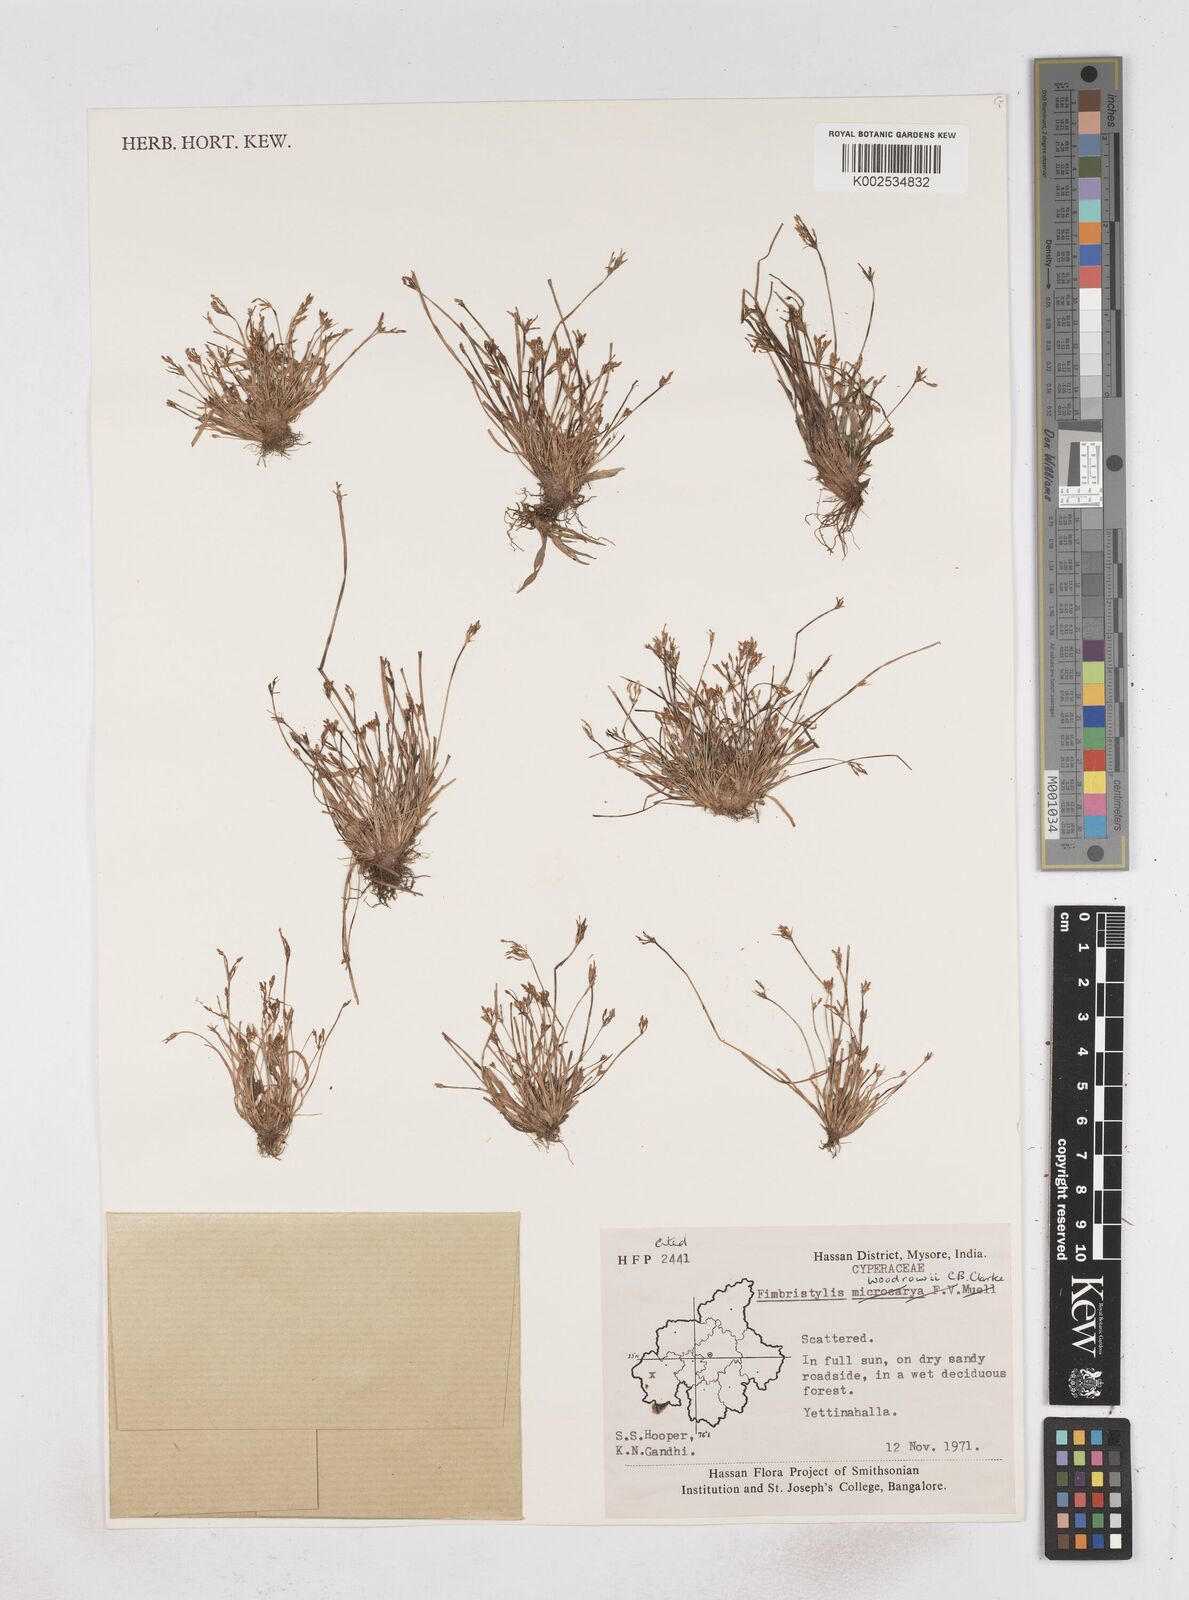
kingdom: Plantae
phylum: Tracheophyta
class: Liliopsida
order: Poales
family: Cyperaceae
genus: Fimbristylis
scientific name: Fimbristylis woodrowii
